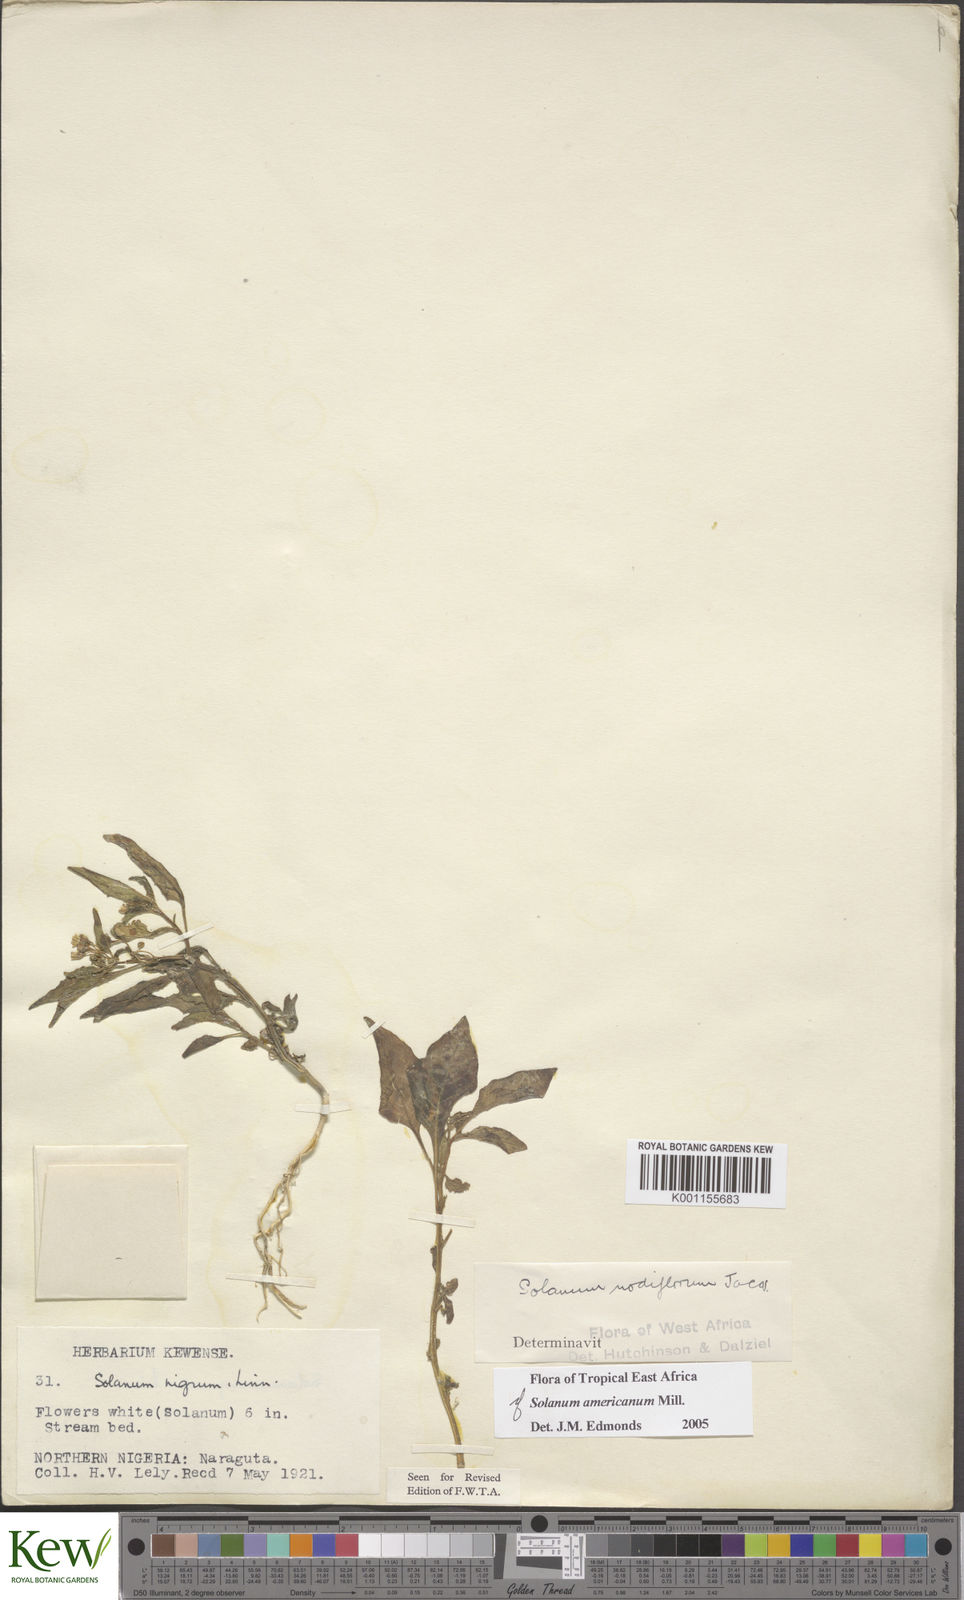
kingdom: Plantae
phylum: Tracheophyta
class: Magnoliopsida
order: Solanales
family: Solanaceae
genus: Solanum
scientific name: Solanum scabrum
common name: Garden-huckleberry
